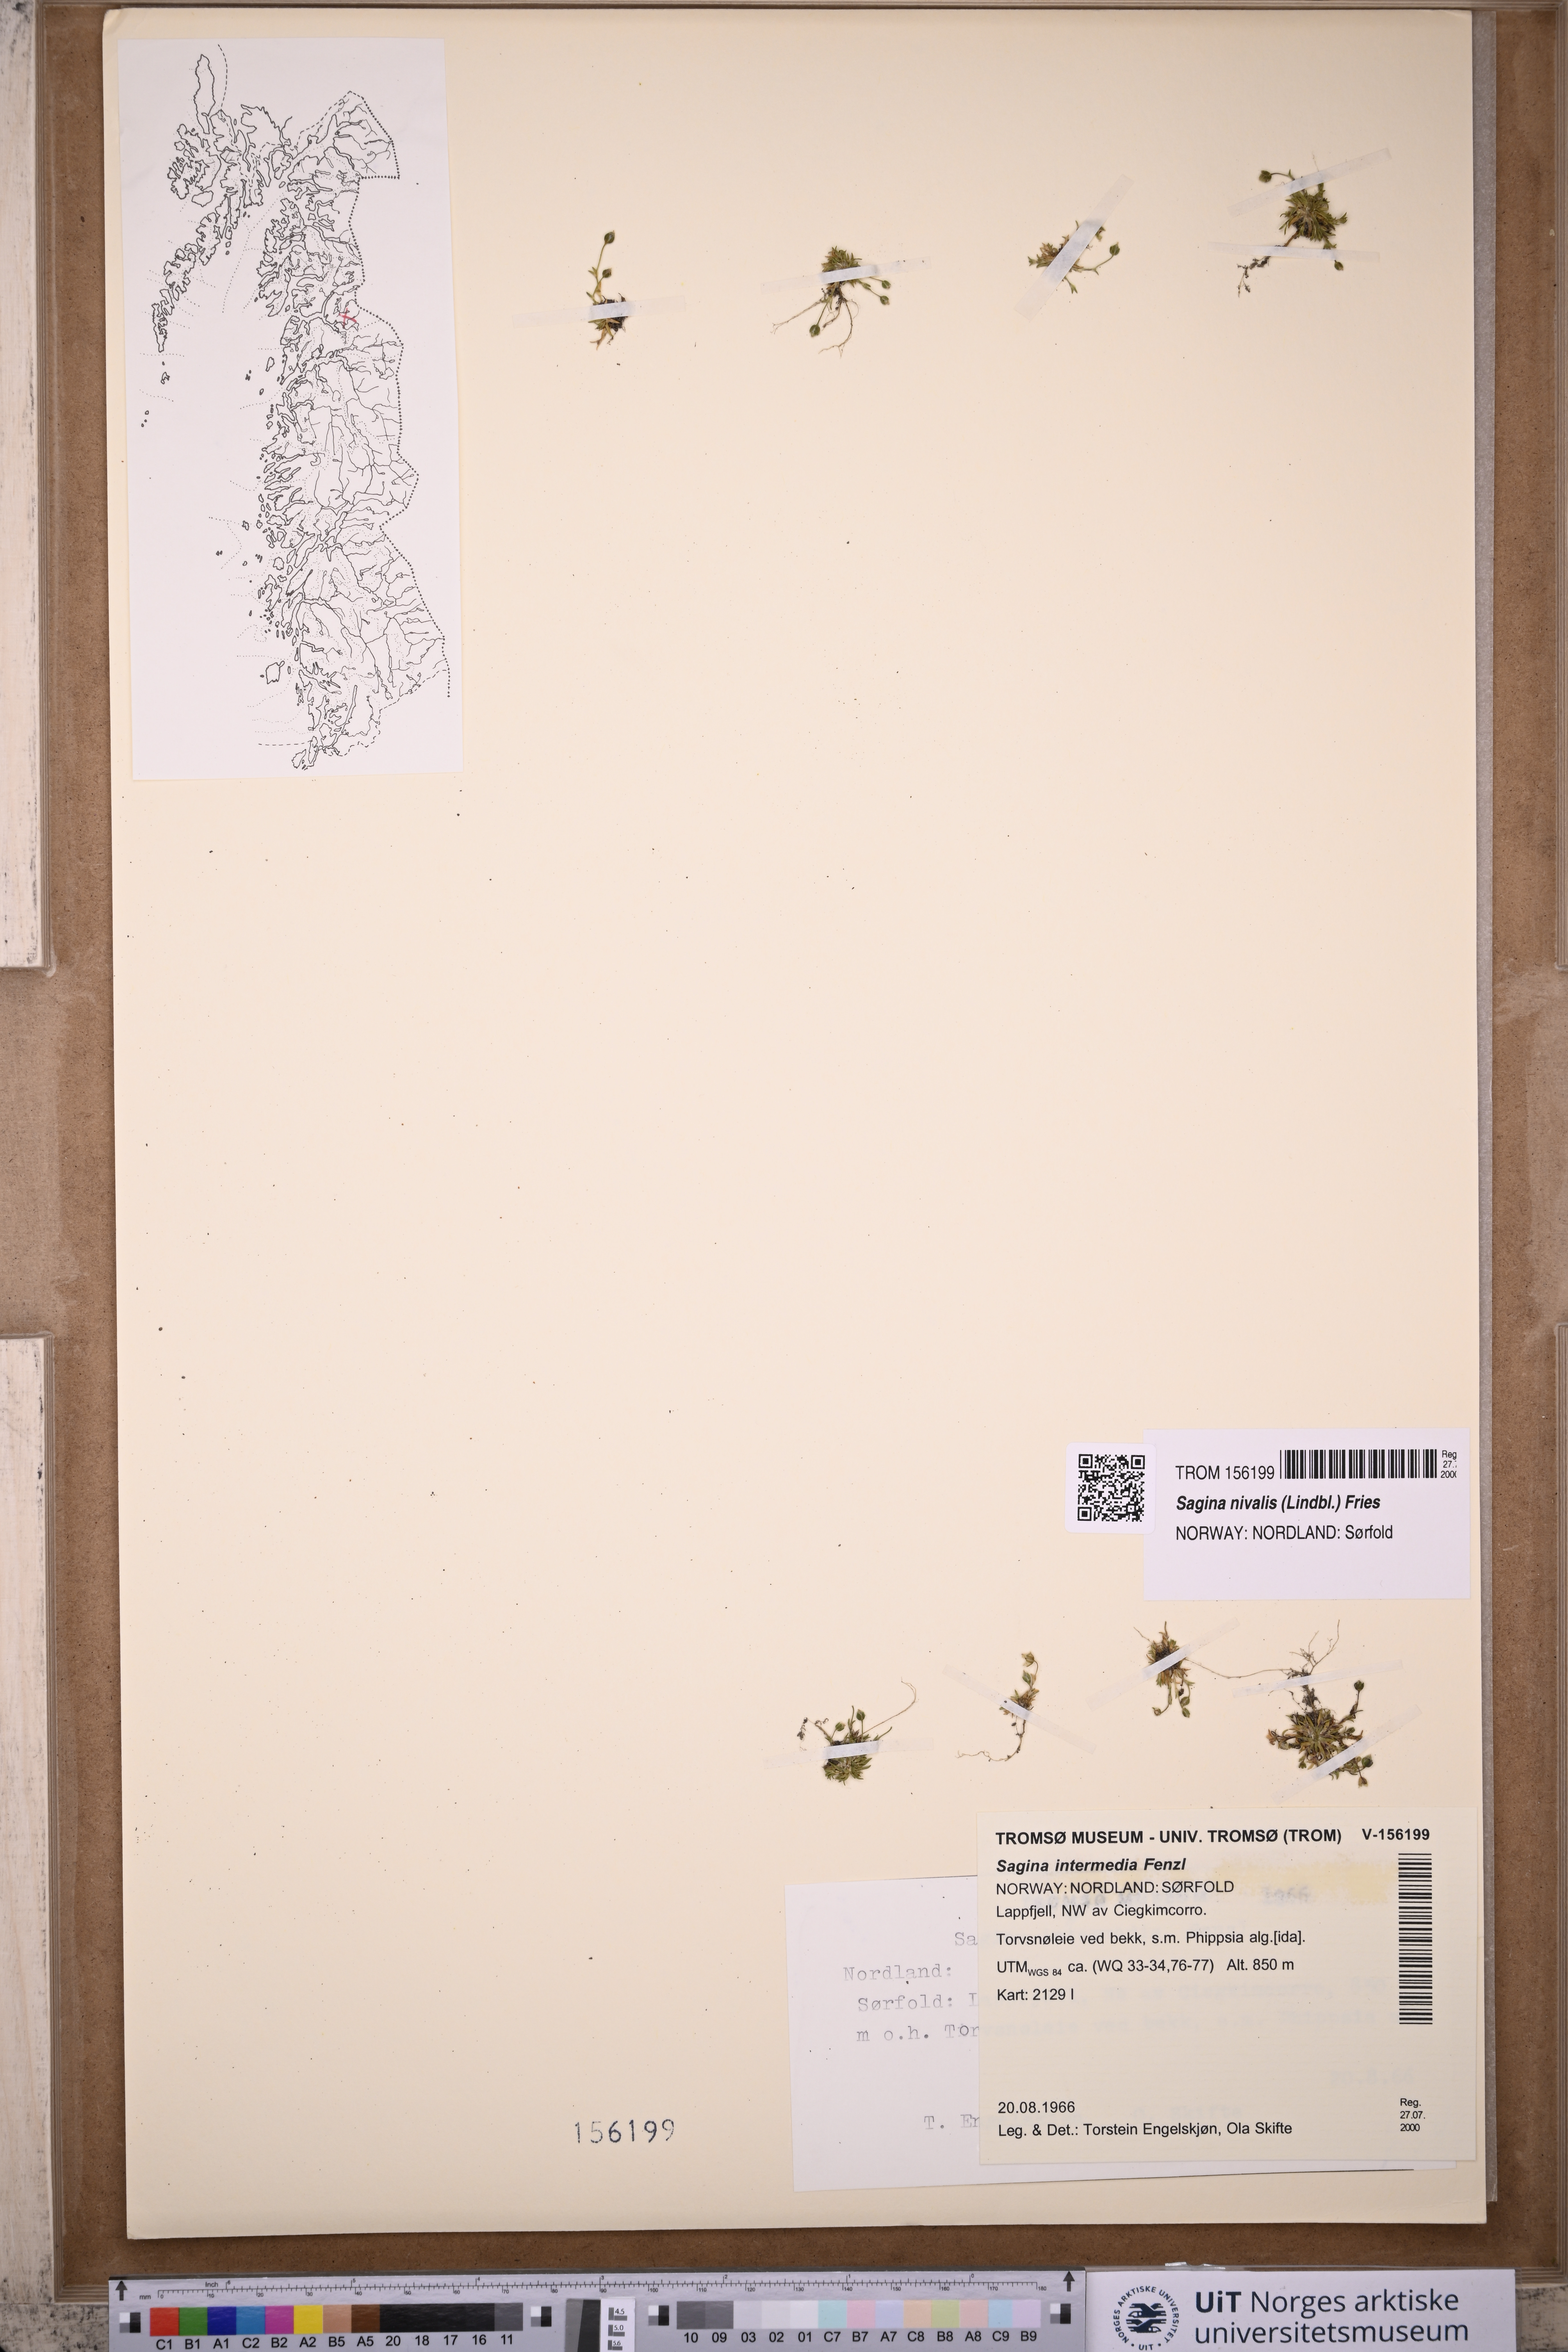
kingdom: Plantae
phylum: Tracheophyta
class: Magnoliopsida
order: Caryophyllales
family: Caryophyllaceae
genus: Sagina
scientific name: Sagina nivalis
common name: Snow pearlwort
